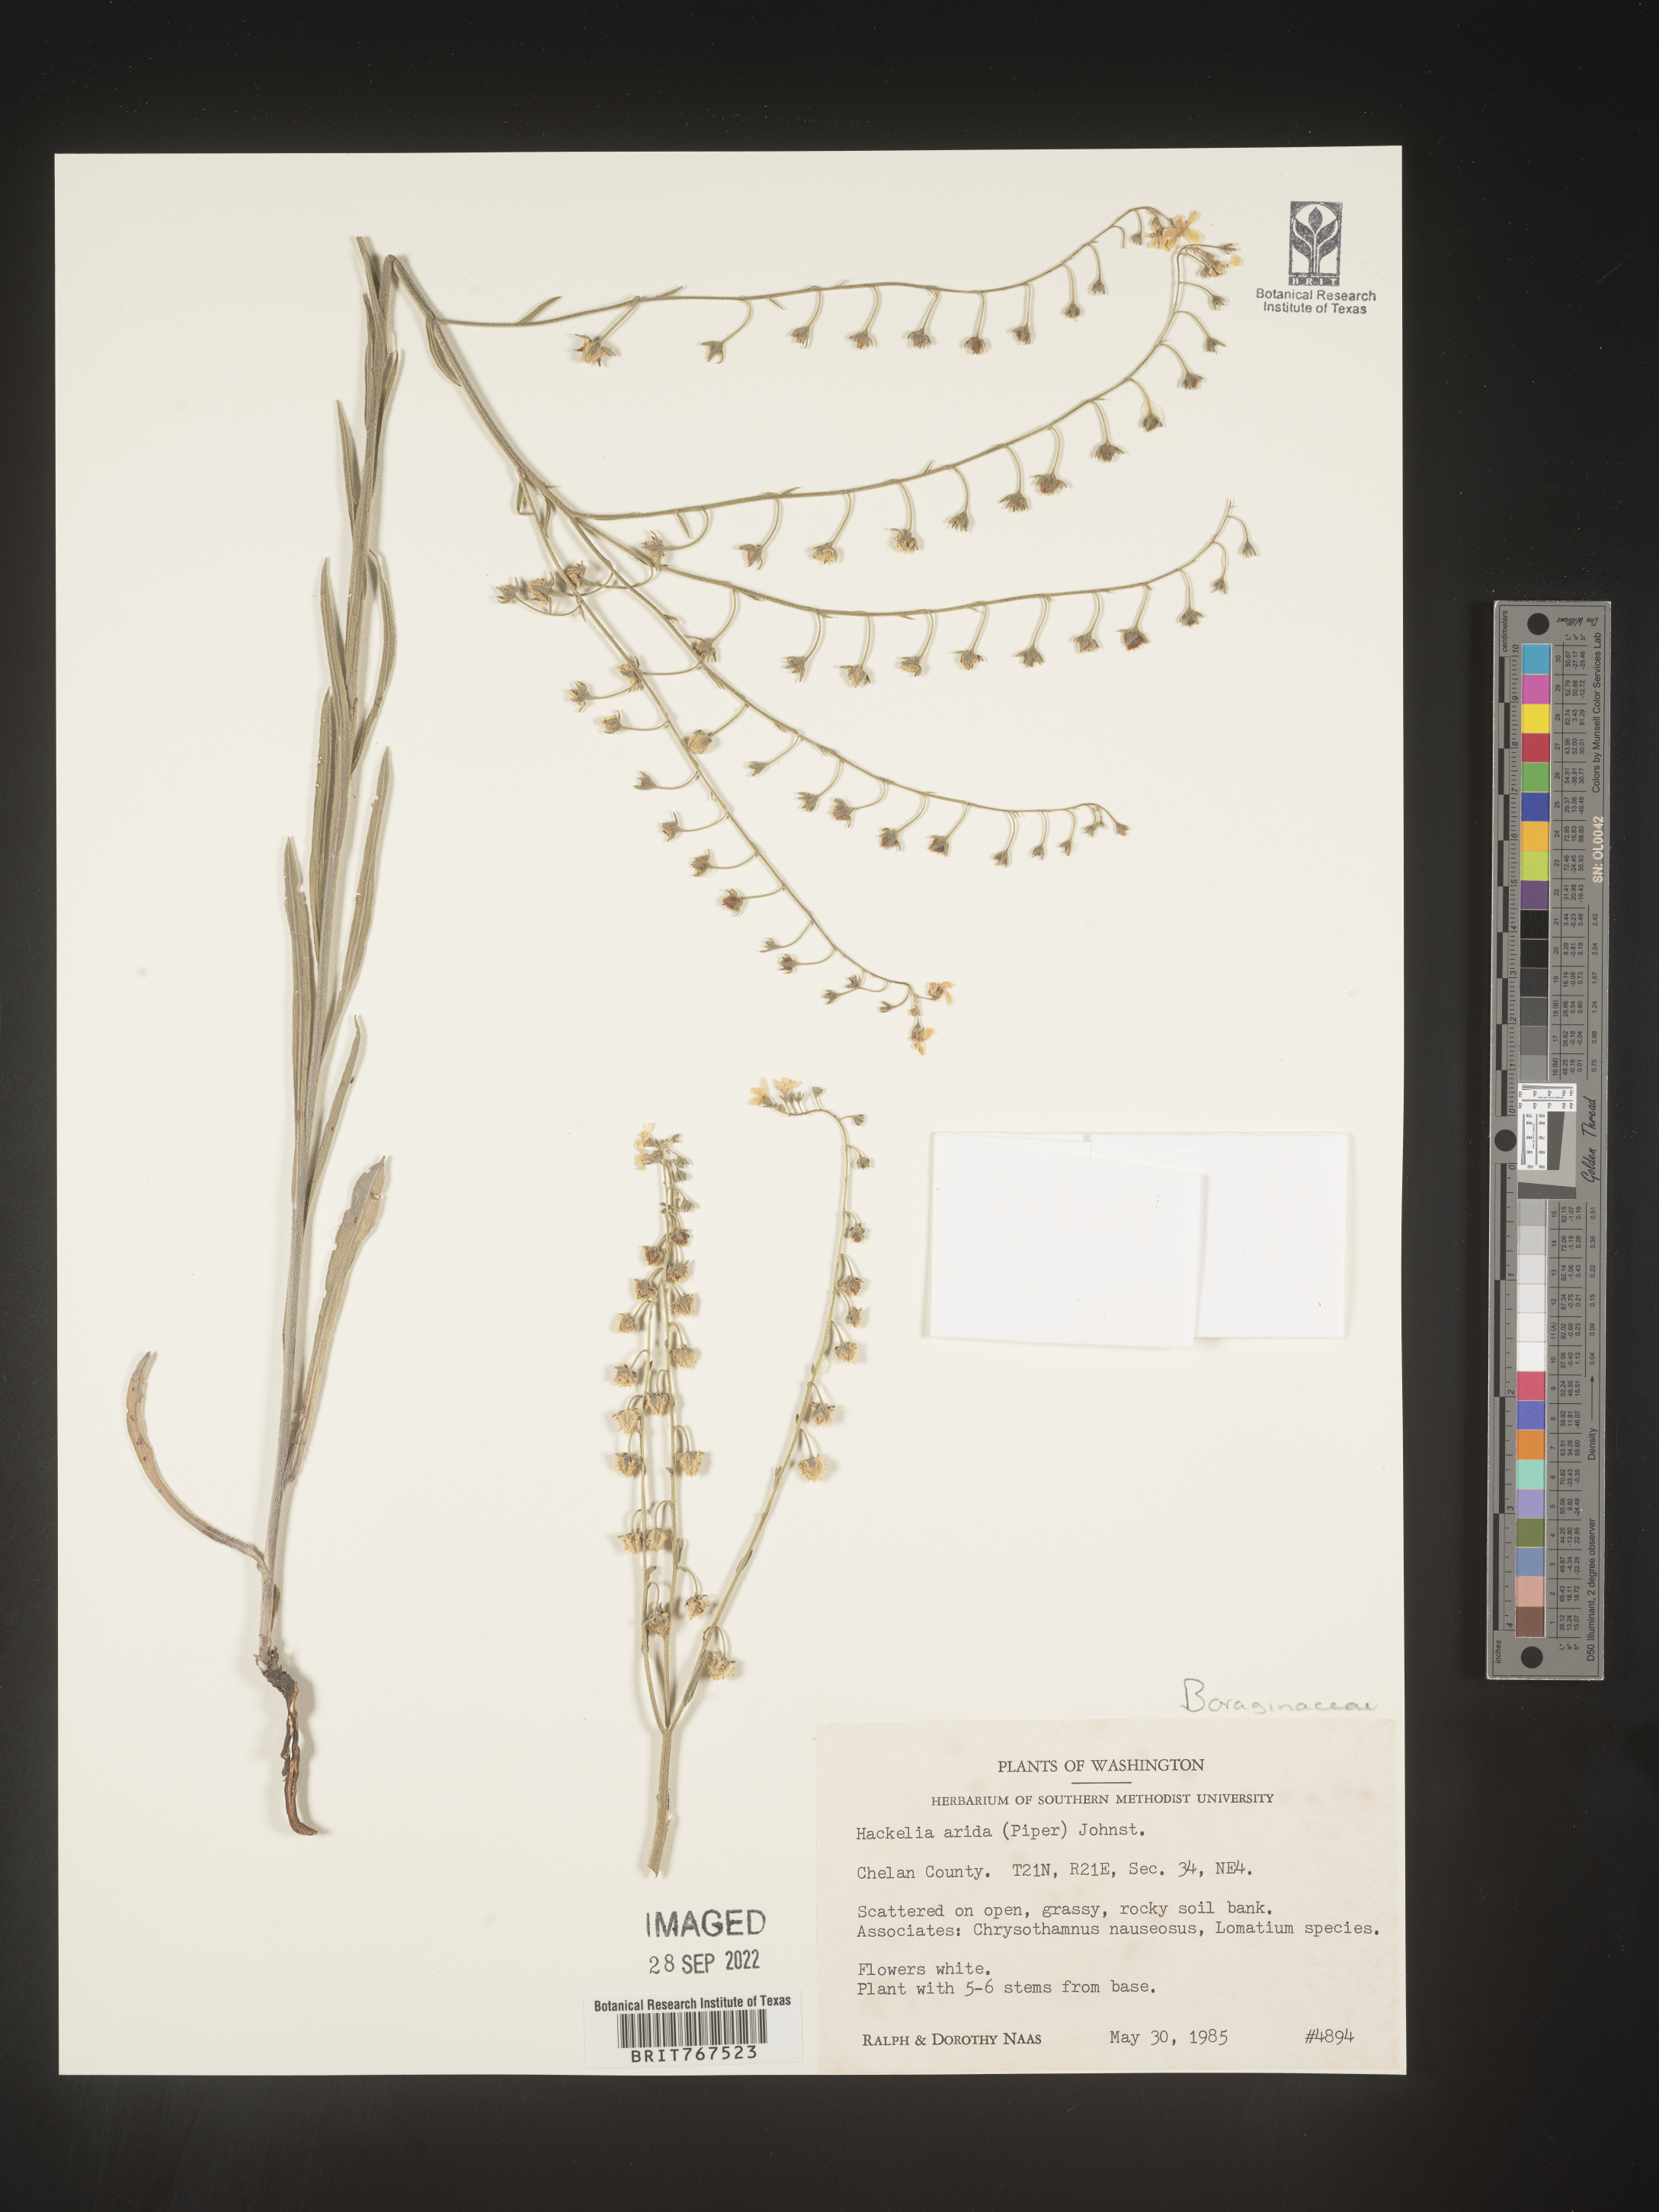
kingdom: Plantae
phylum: Tracheophyta
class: Magnoliopsida
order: Boraginales
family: Boraginaceae
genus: Hackelia
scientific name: Hackelia
